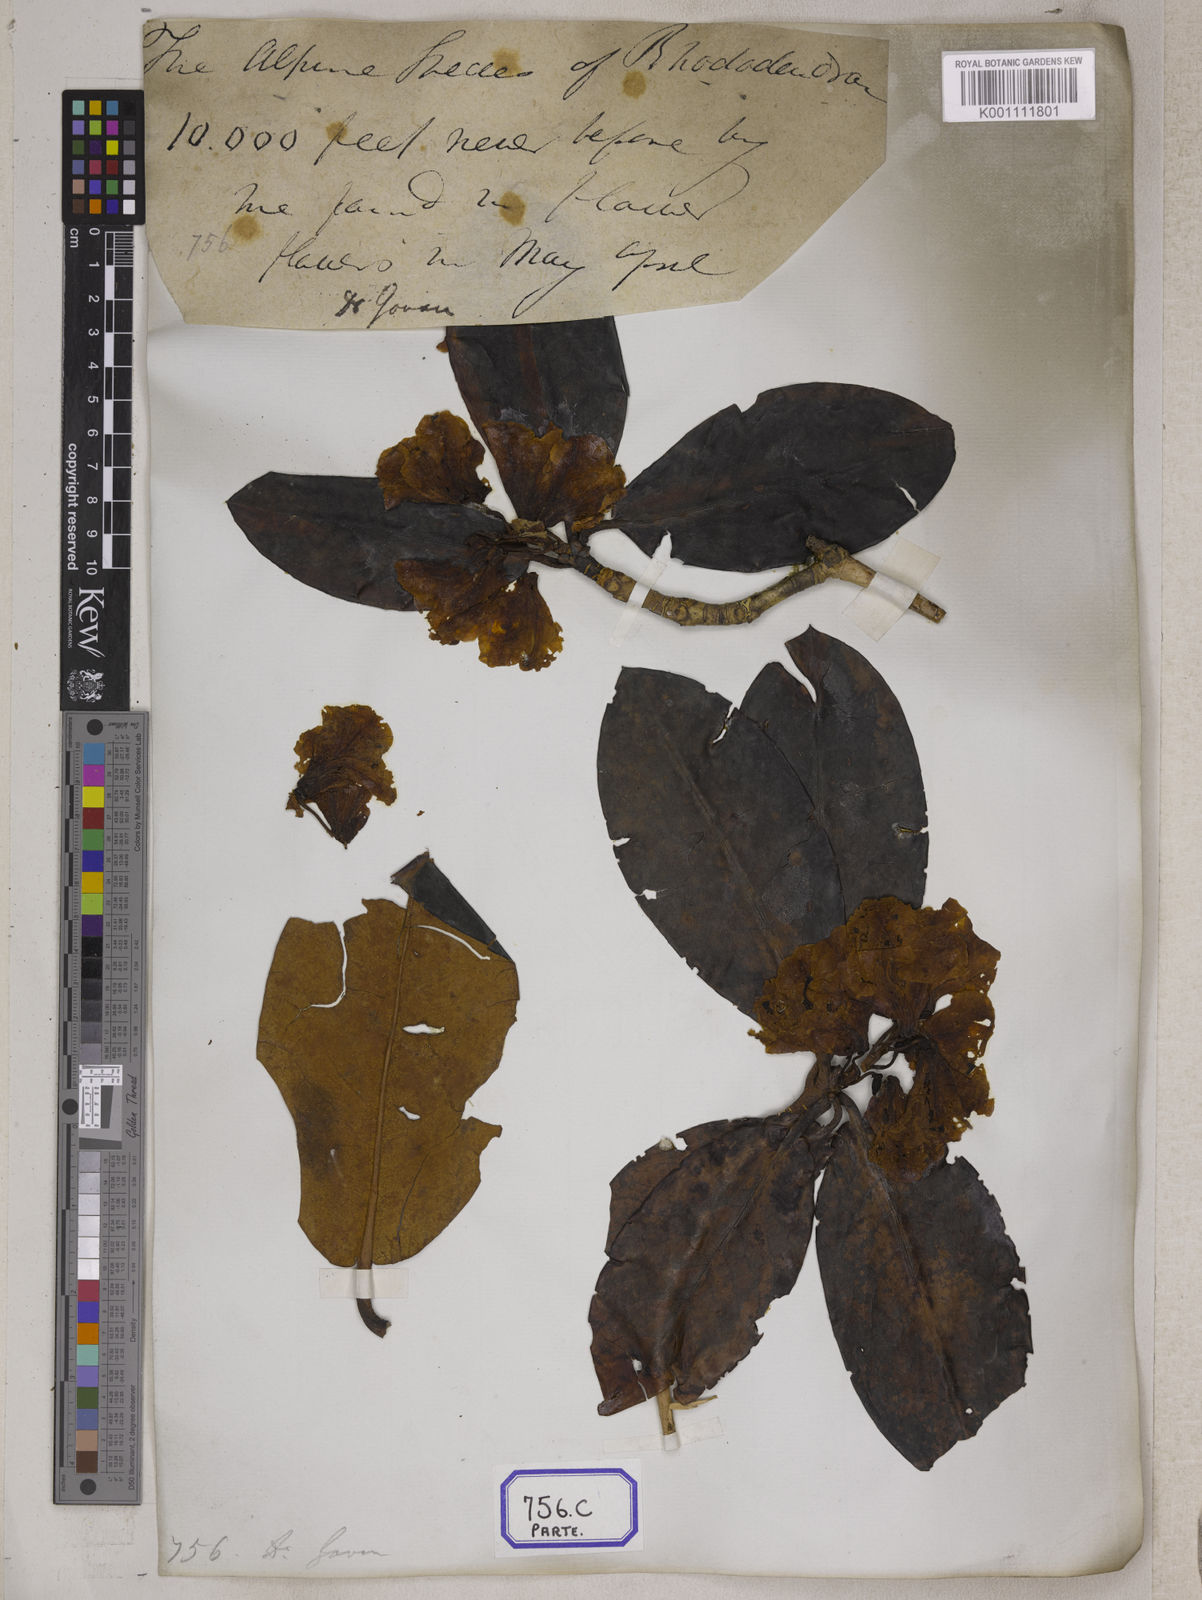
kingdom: Plantae
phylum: Tracheophyta
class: Magnoliopsida
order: Ericales
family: Ericaceae
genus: Rhododendron
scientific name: Rhododendron campanulatum
